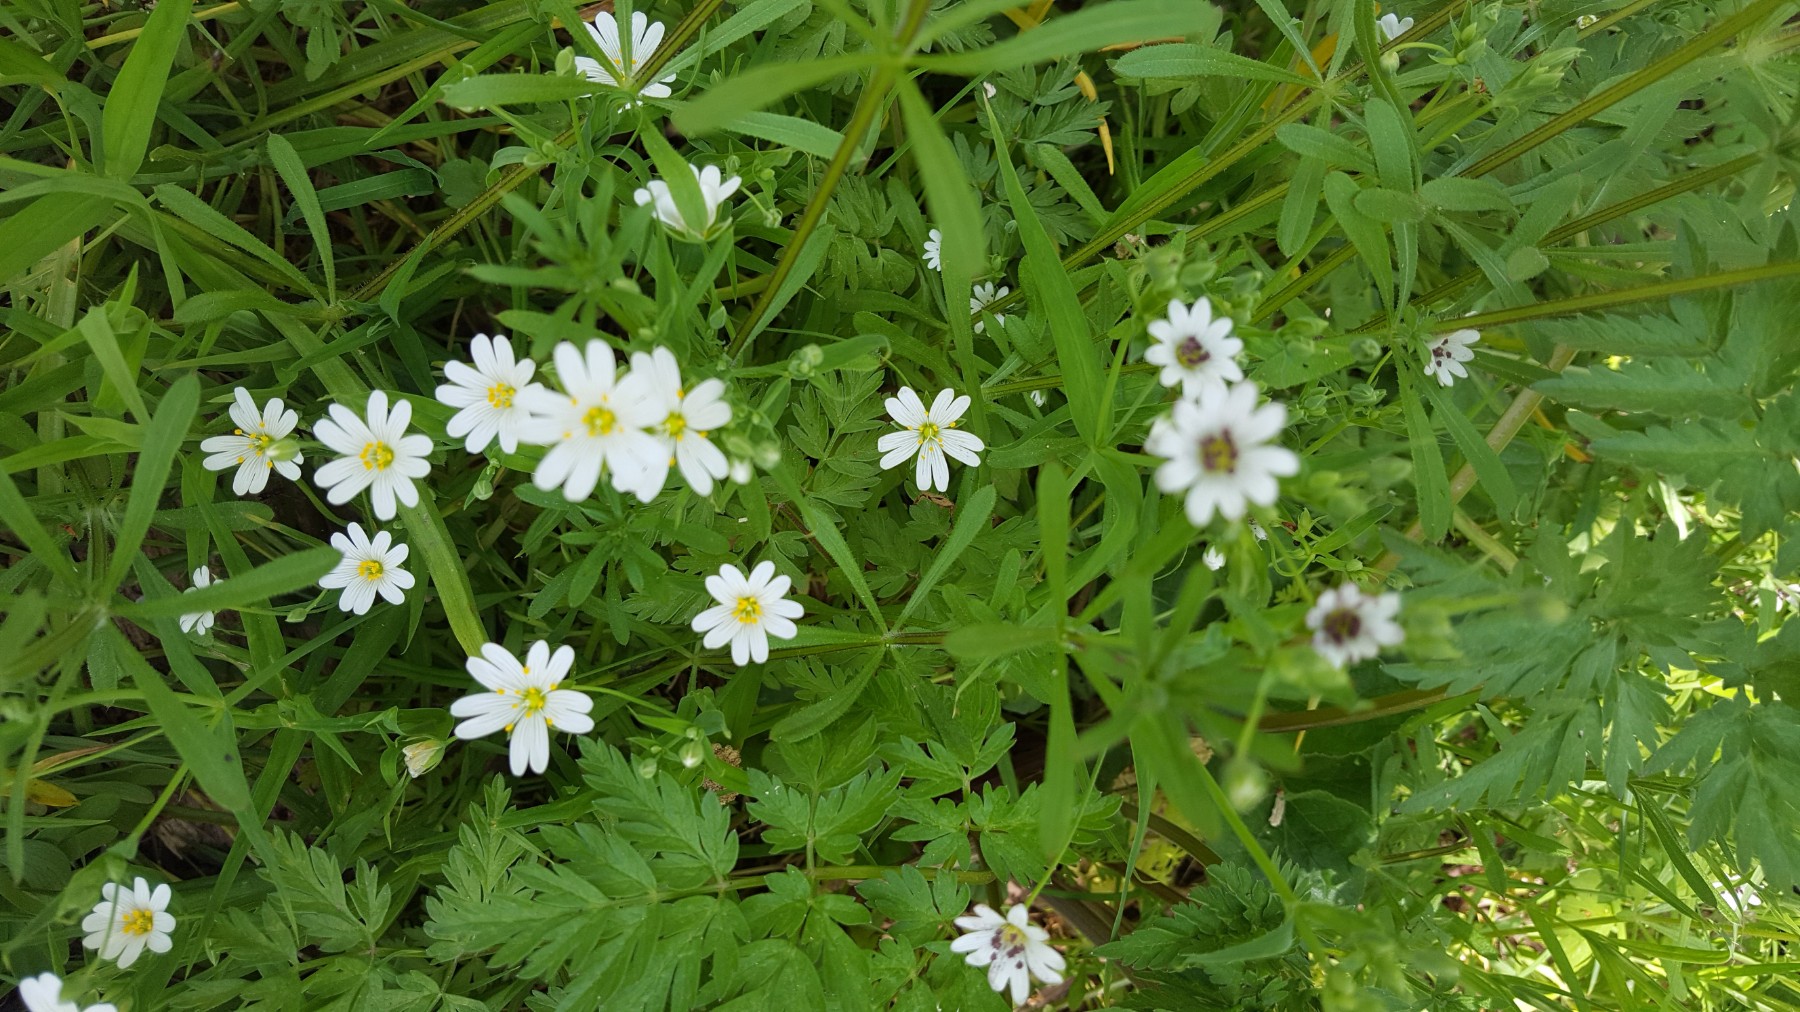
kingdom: Fungi
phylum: Basidiomycota
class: Microbotryomycetes
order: Microbotryales
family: Microbotryaceae
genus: Microbotryum
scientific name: Microbotryum stellariae
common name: fladstjerne-støvbladrust
